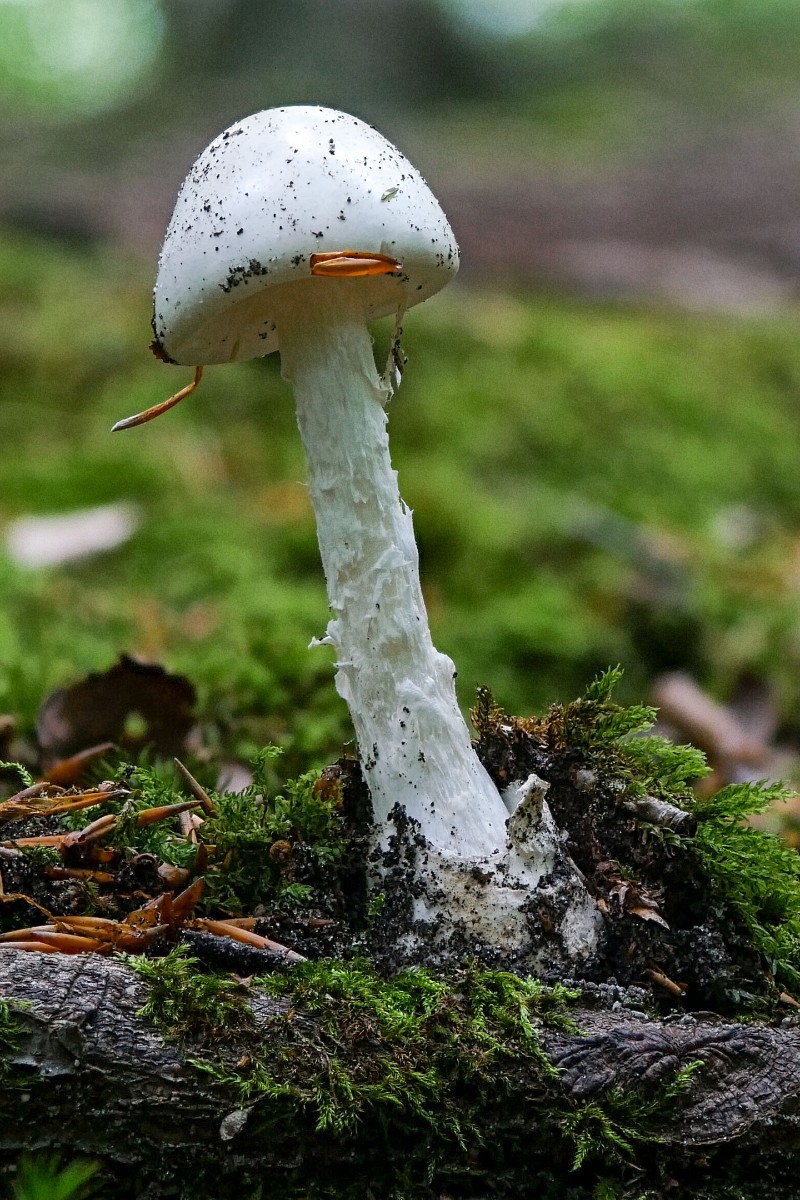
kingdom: Fungi
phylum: Basidiomycota
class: Agaricomycetes
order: Agaricales
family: Amanitaceae
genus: Amanita
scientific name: Amanita virosa
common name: snehvid fluesvamp
